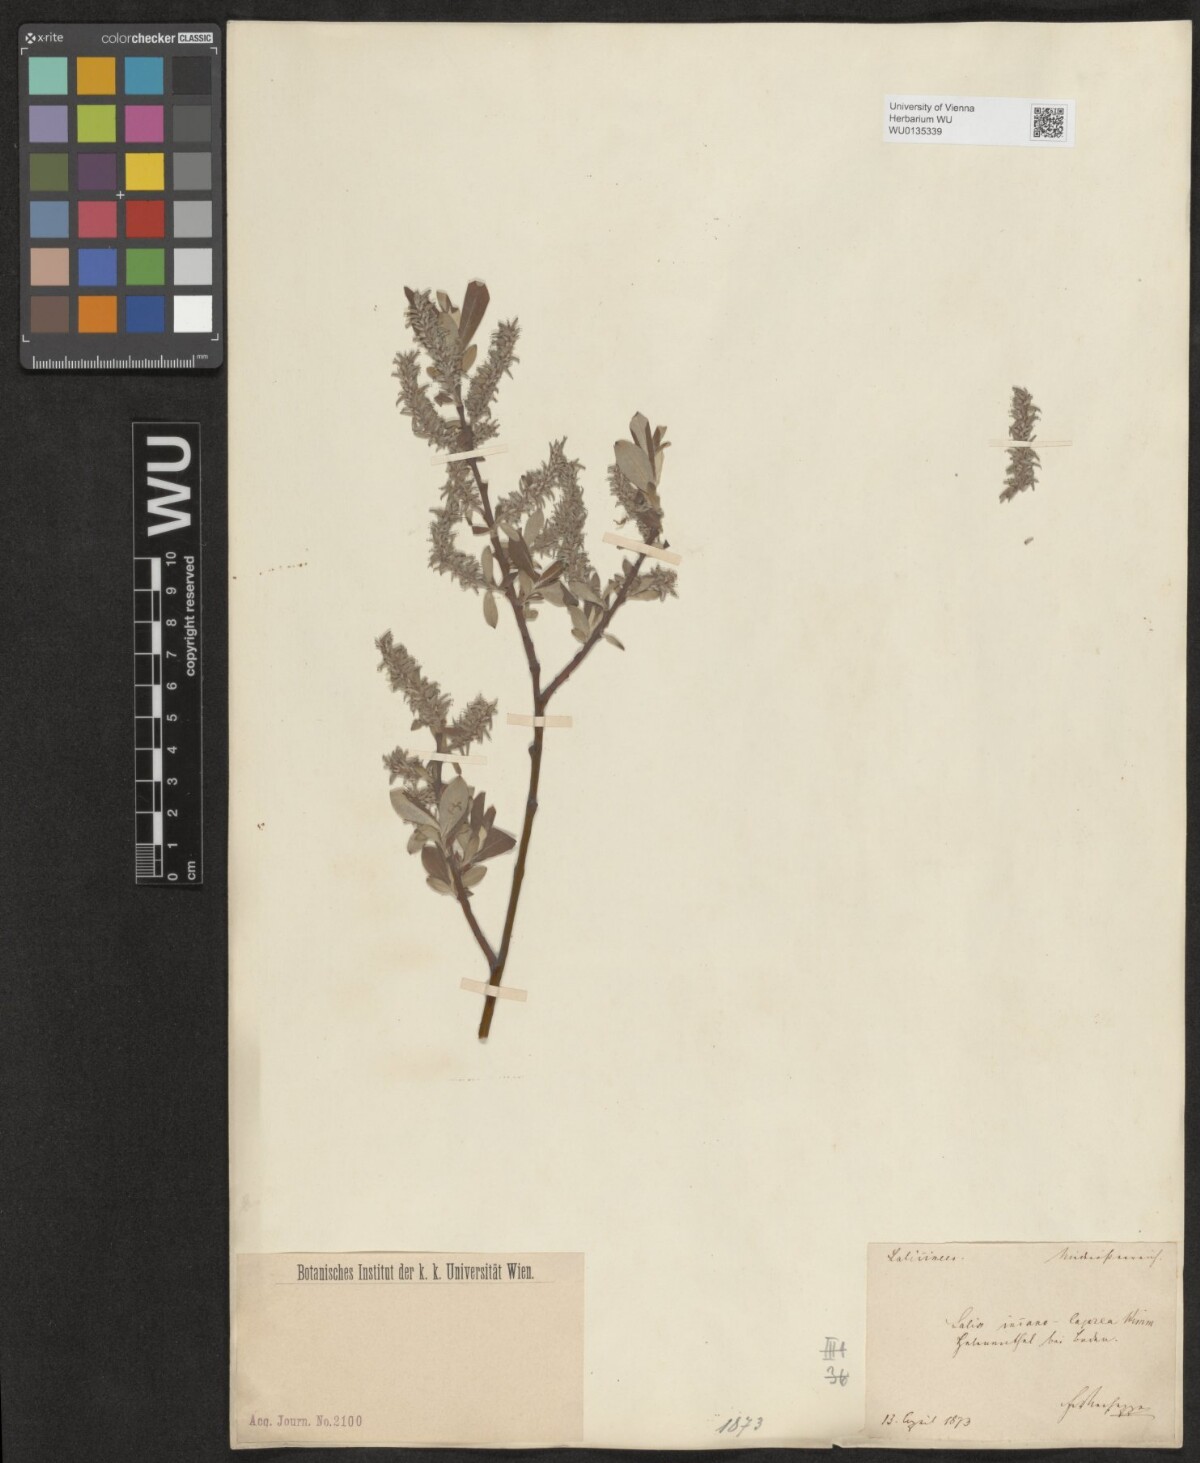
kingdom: Plantae
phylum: Tracheophyta
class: Magnoliopsida
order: Malpighiales
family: Salicaceae
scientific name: Salicaceae
